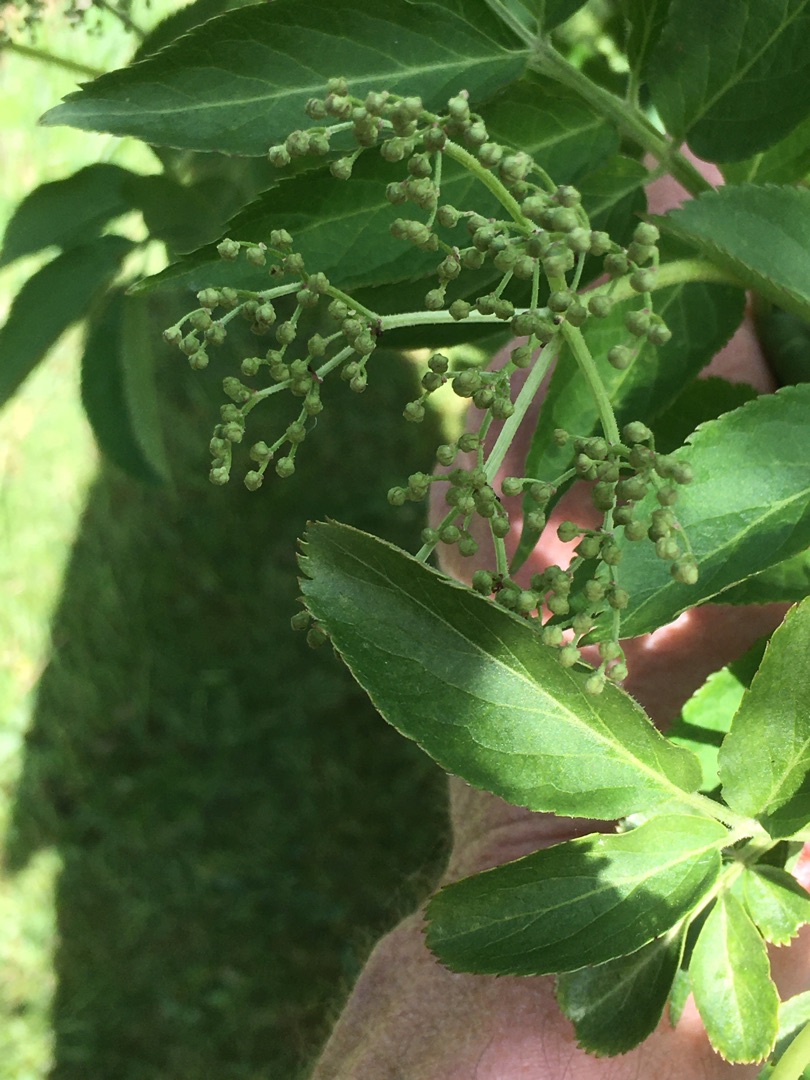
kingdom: Plantae
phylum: Tracheophyta
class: Magnoliopsida
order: Dipsacales
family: Viburnaceae
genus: Sambucus
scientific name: Sambucus nigra
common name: Almindelig hyld
